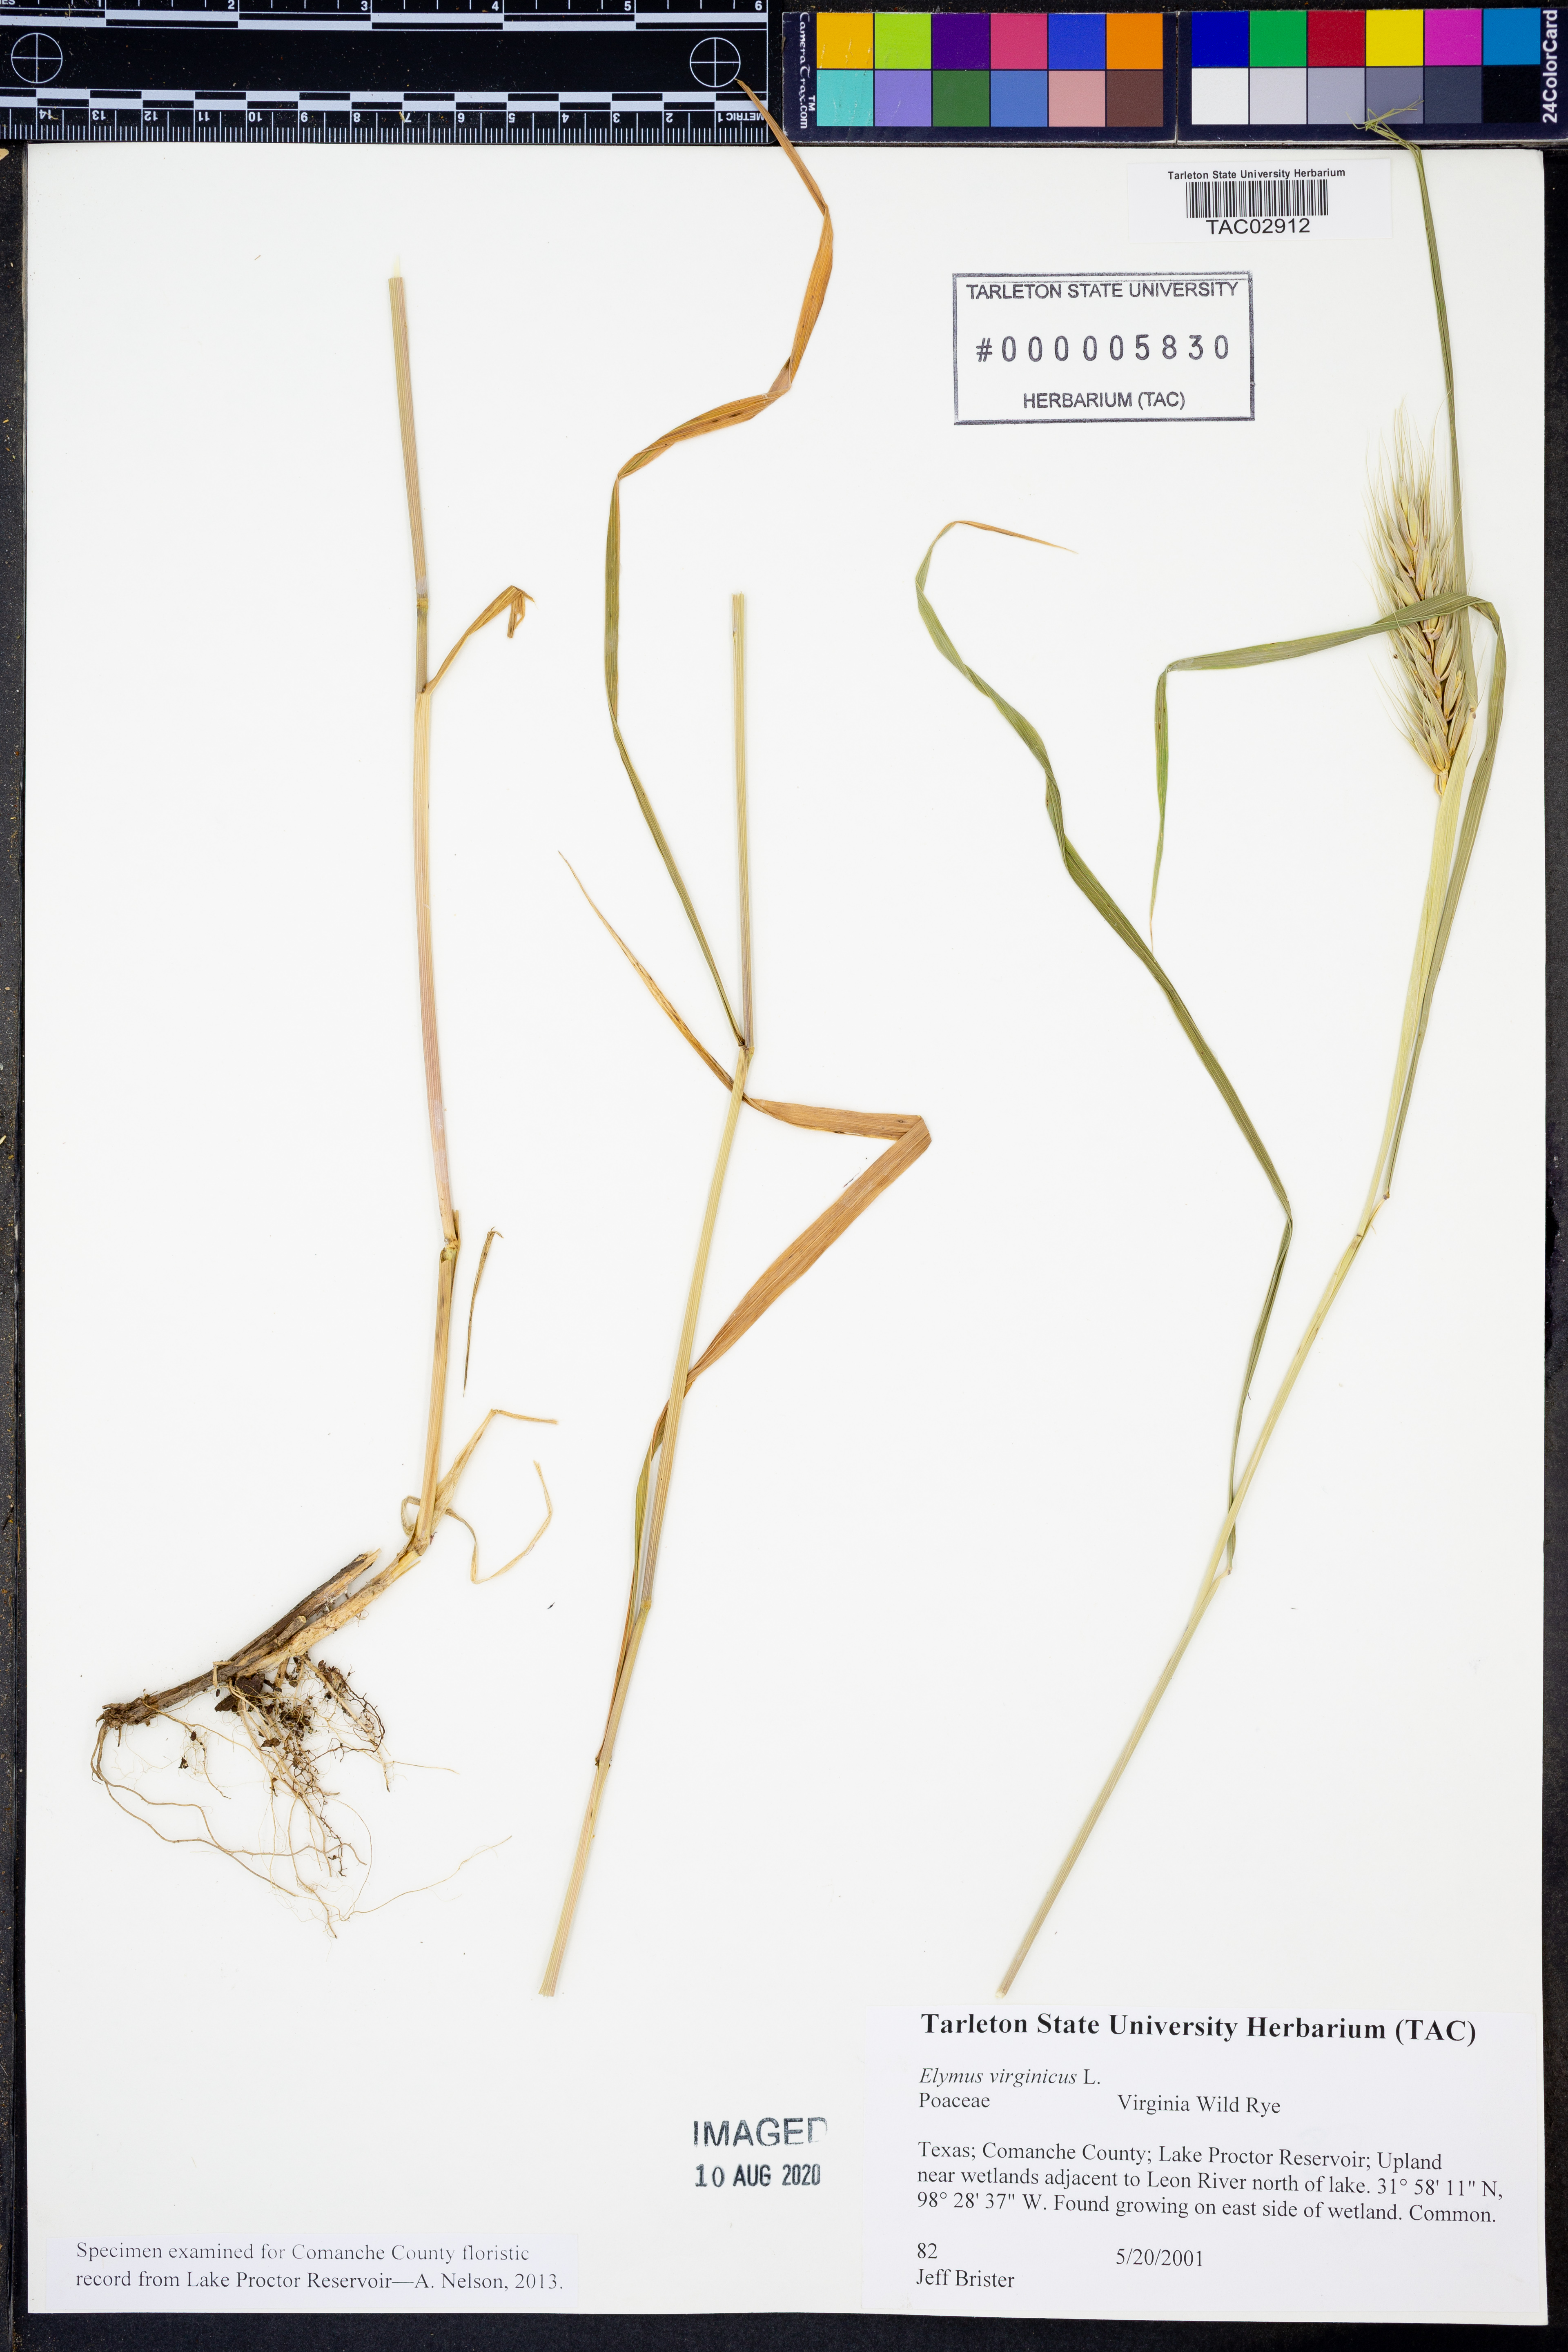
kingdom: Plantae
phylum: Tracheophyta
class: Liliopsida
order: Poales
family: Poaceae
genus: Elymus
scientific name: Elymus virginicus
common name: Common eastern wildrye
